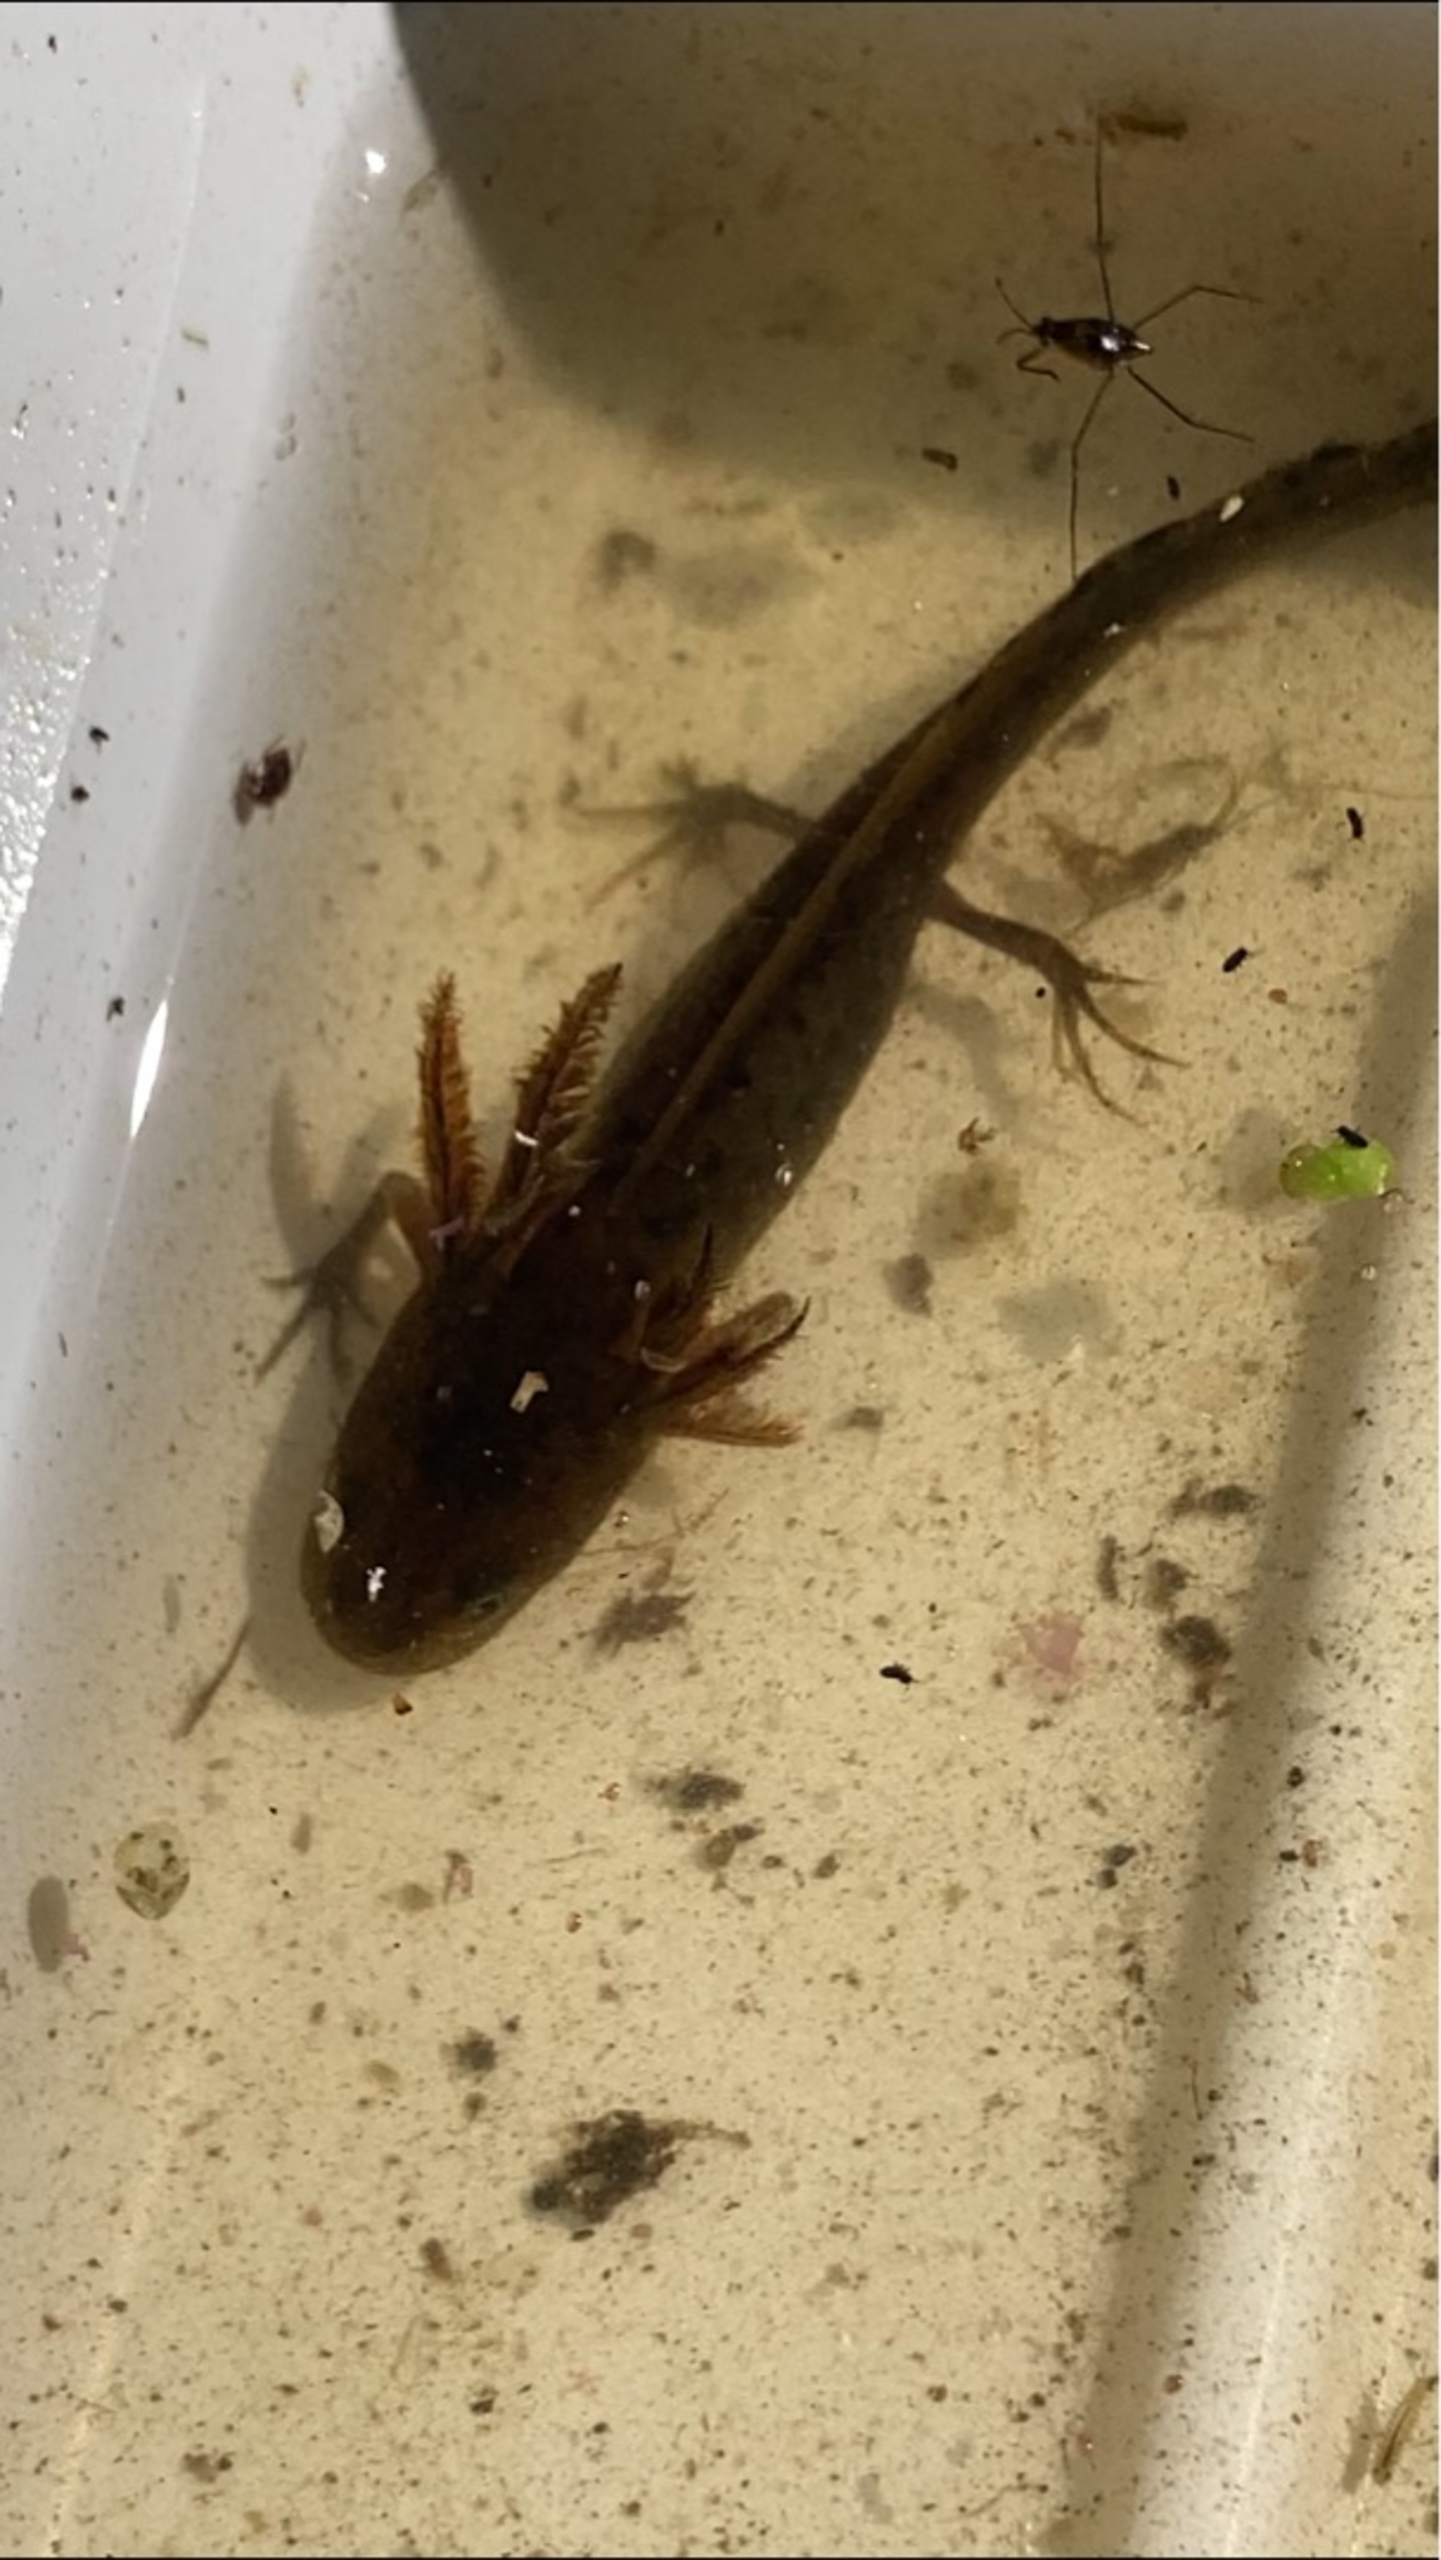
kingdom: Animalia
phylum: Chordata
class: Amphibia
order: Caudata
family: Salamandridae
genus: Triturus
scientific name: Triturus cristatus
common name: Stor vandsalamander
